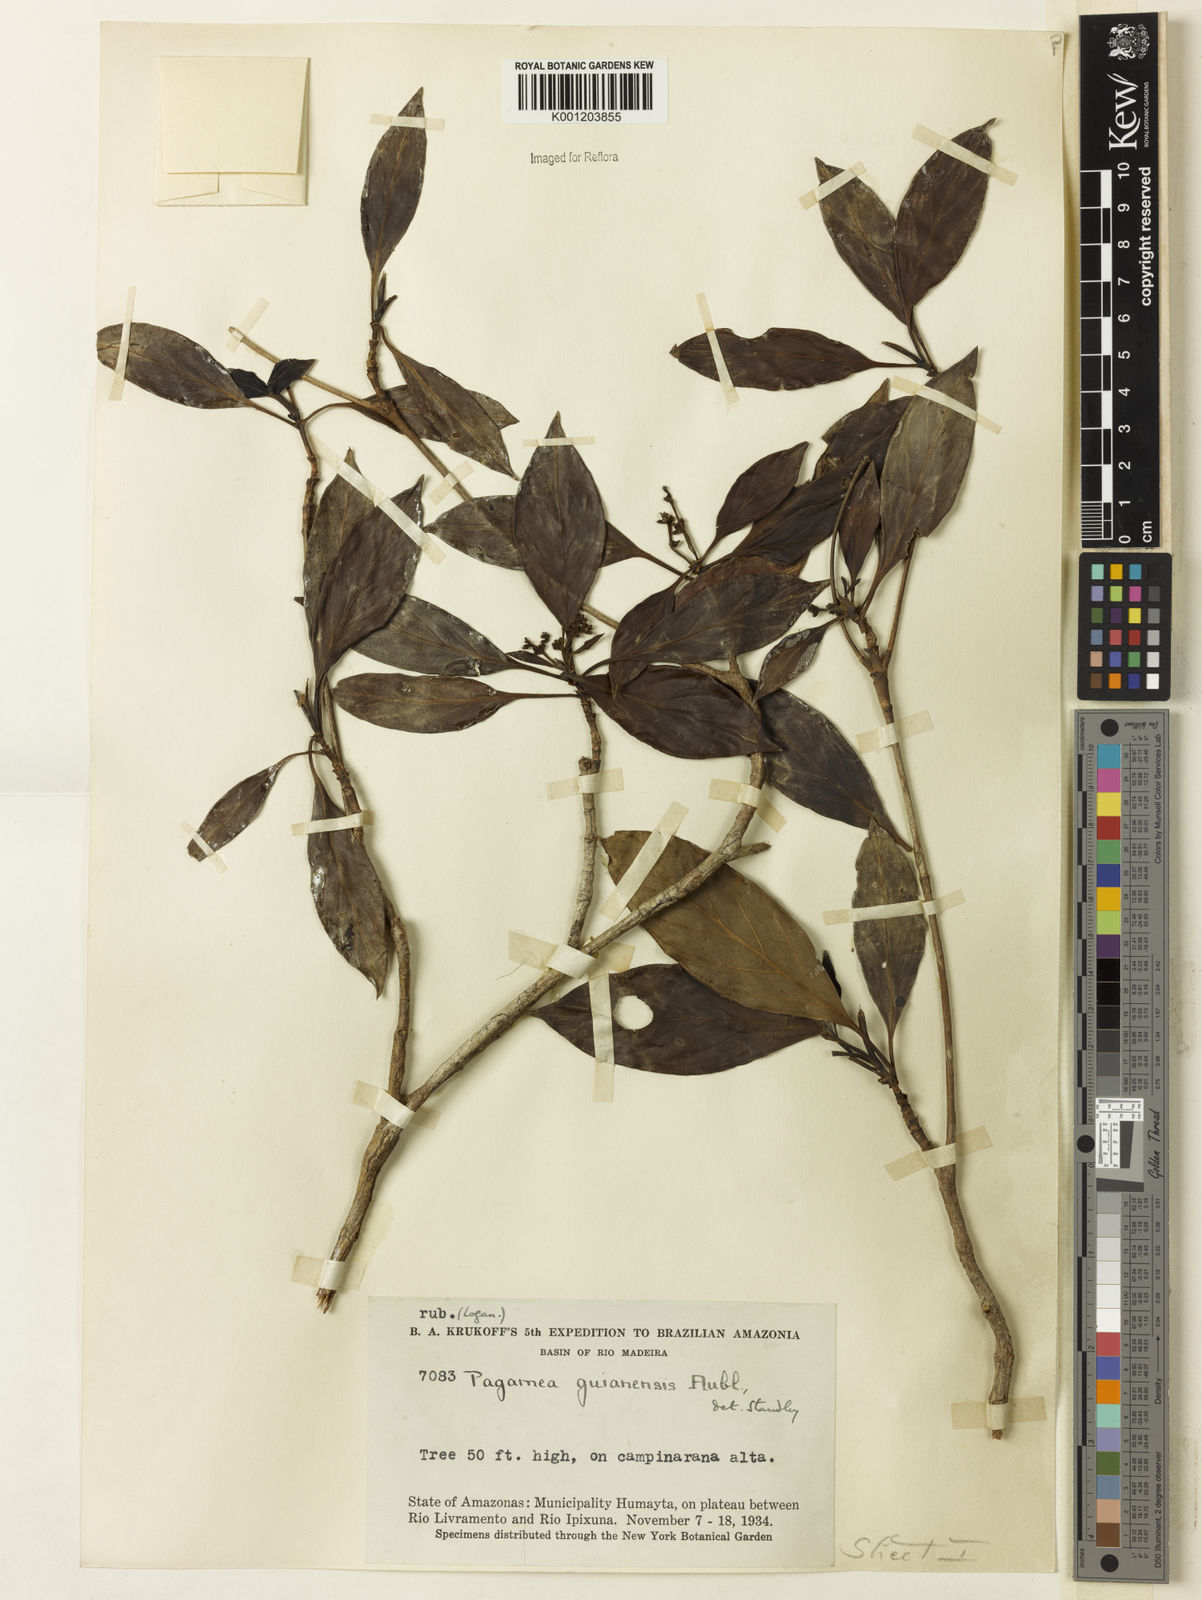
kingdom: Plantae
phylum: Tracheophyta
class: Magnoliopsida
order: Gentianales
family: Rubiaceae
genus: Pagamea
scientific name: Pagamea guianensis
